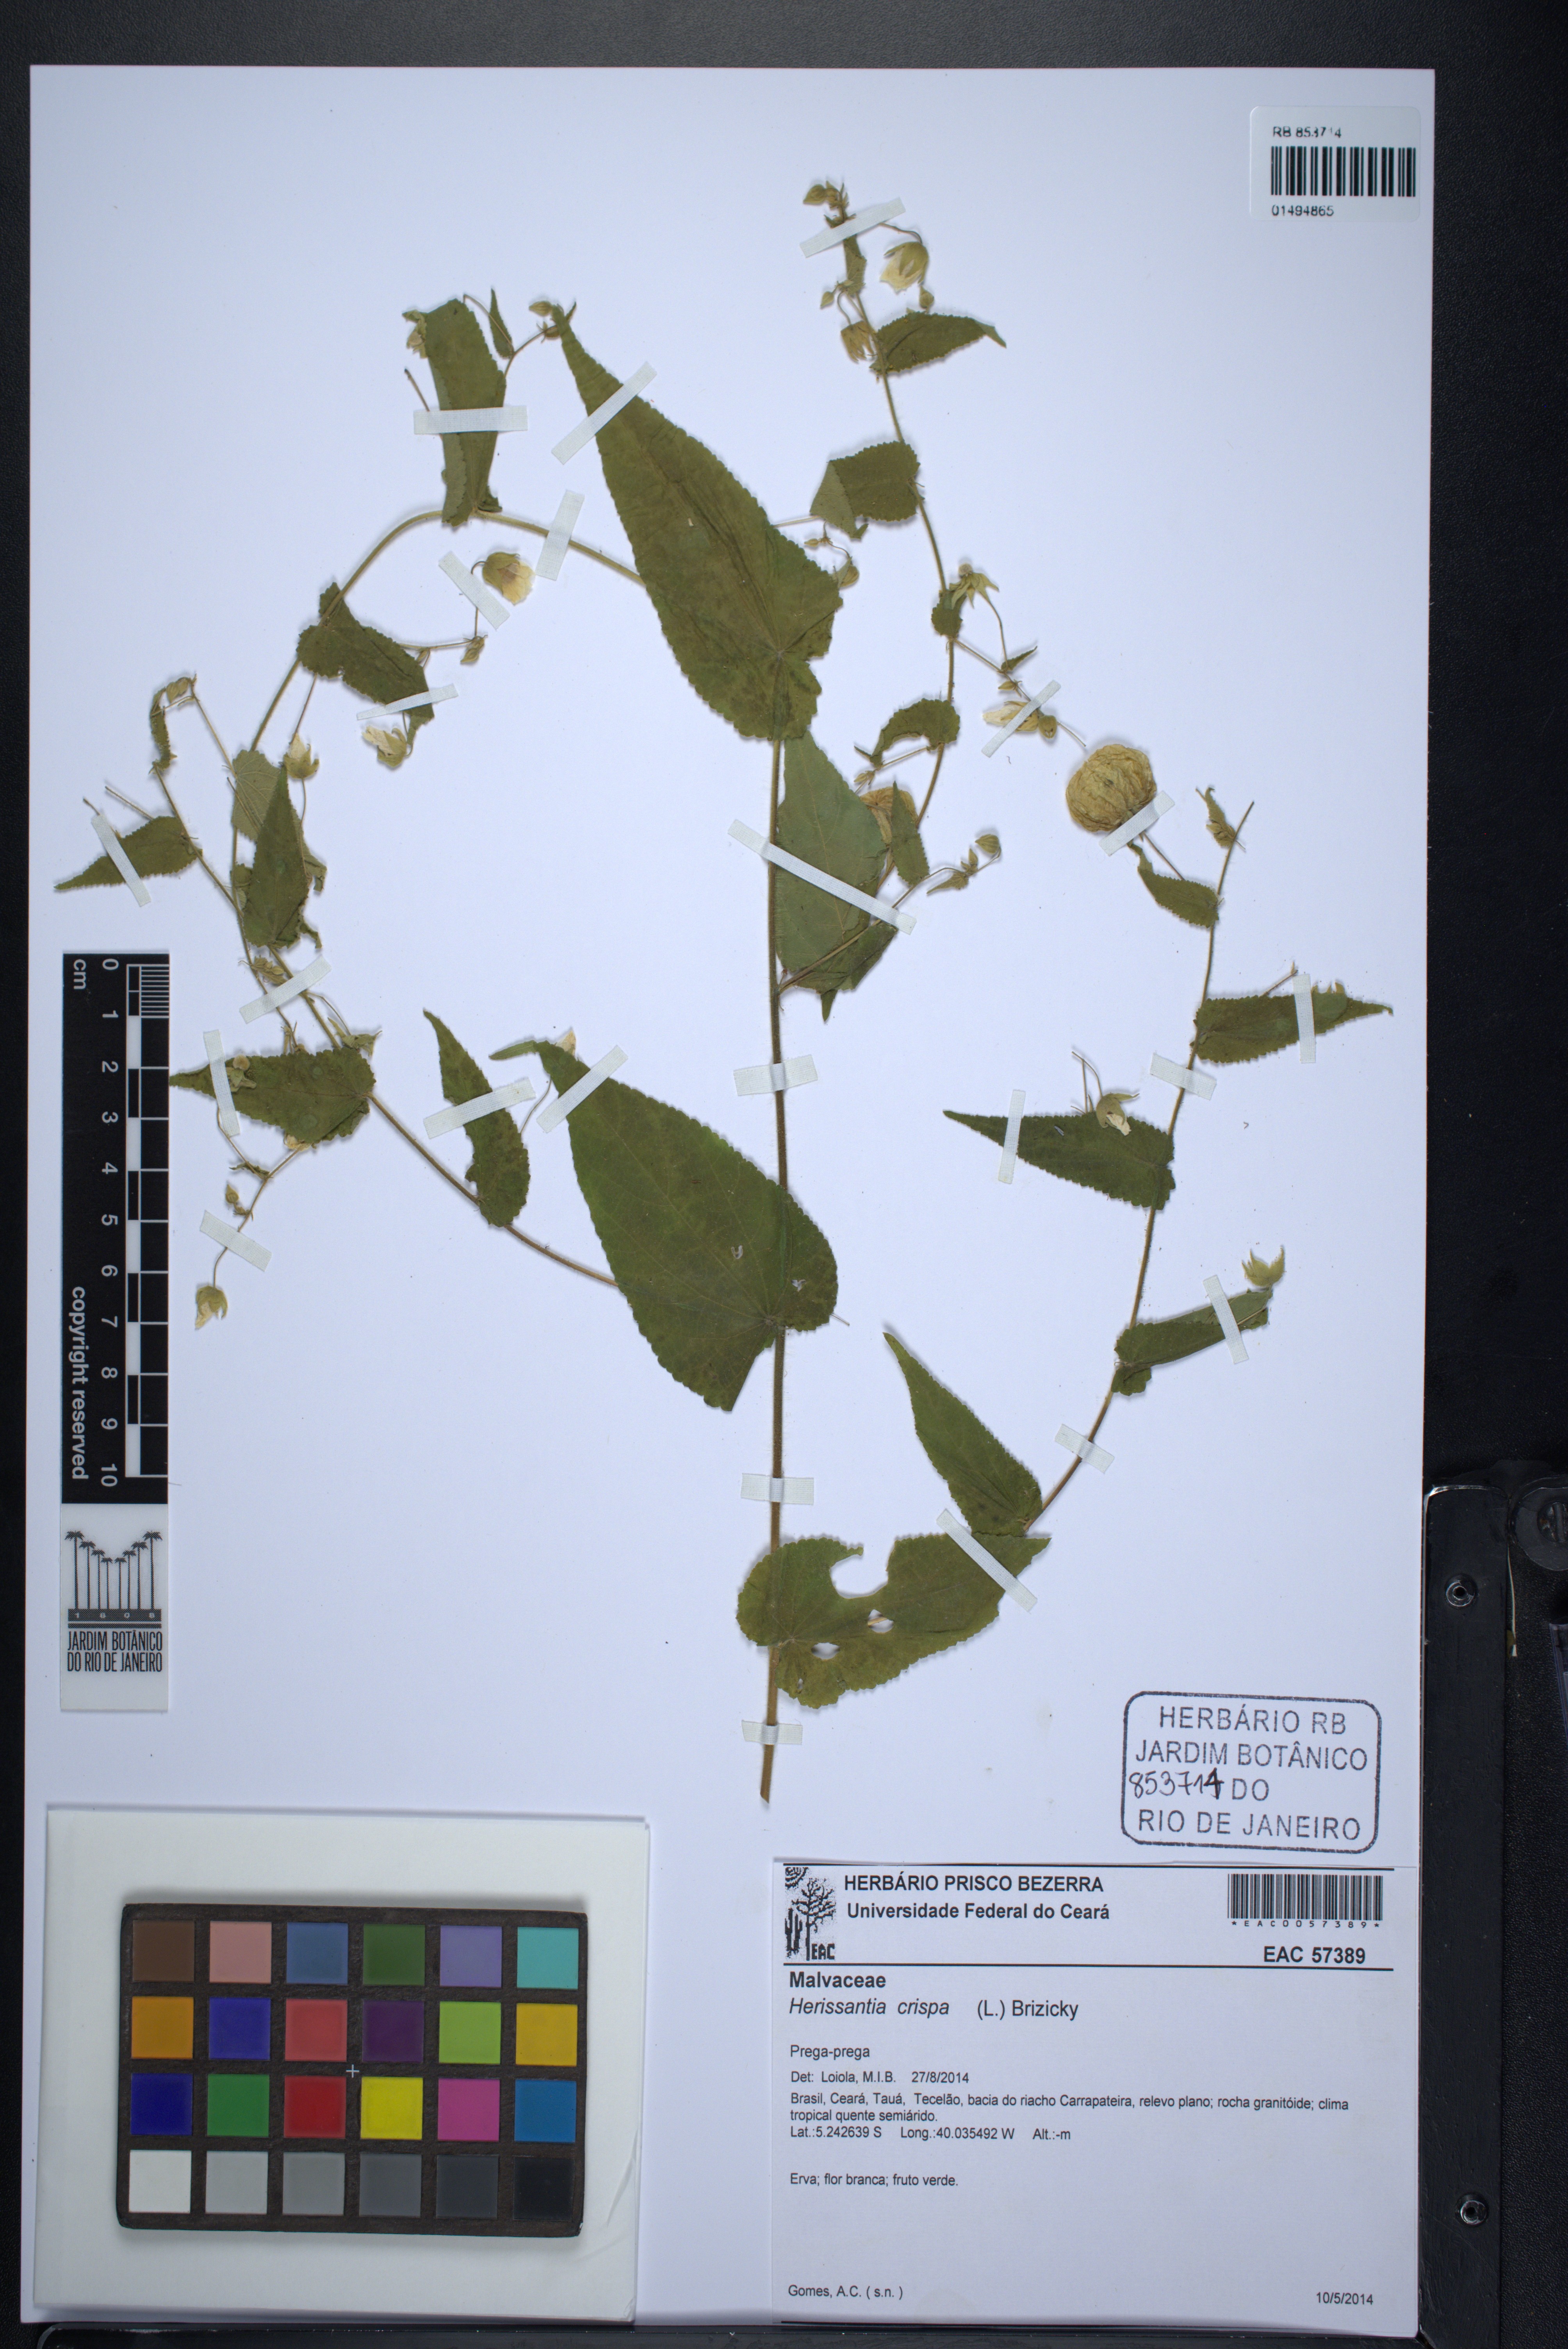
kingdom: Plantae
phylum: Tracheophyta
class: Magnoliopsida
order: Malvales
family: Malvaceae
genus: Herissantia
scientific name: Herissantia crispa
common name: Bladdermallow
